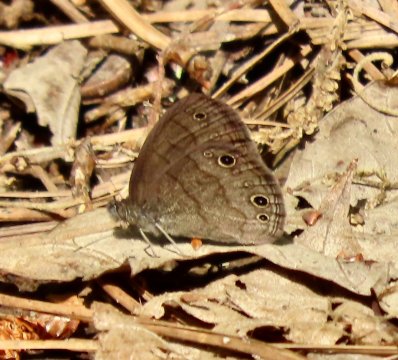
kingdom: Animalia
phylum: Arthropoda
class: Insecta
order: Lepidoptera
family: Nymphalidae
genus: Hermeuptychia
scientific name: Hermeuptychia hermes
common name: Carolina Satyr
